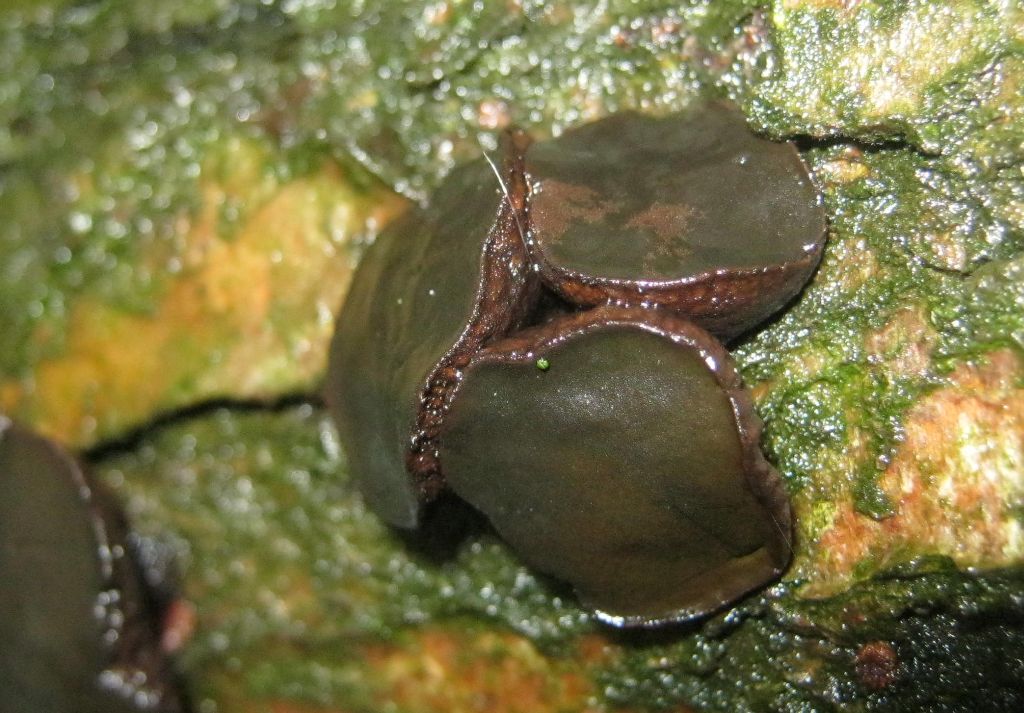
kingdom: Fungi
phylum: Ascomycota
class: Leotiomycetes
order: Phacidiales
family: Phacidiaceae
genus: Bulgaria
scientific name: Bulgaria inquinans
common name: afsmittende topsvamp
